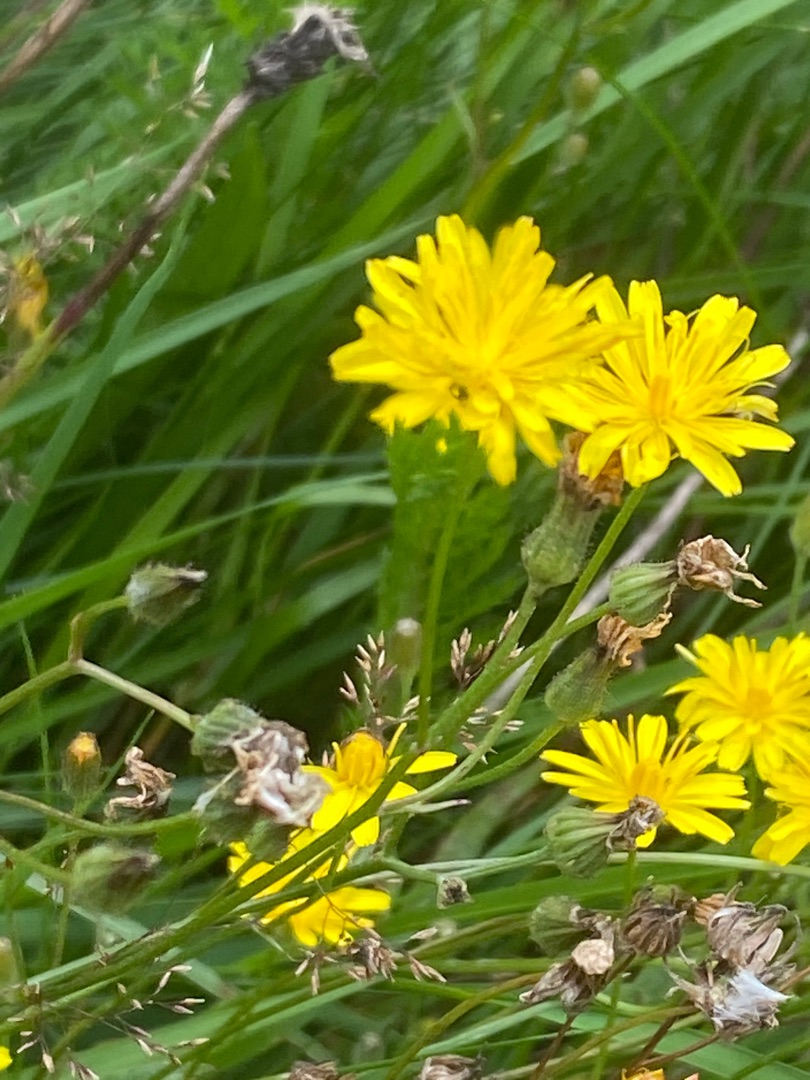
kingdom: Plantae
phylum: Tracheophyta
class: Magnoliopsida
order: Asterales
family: Asteraceae
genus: Crepis
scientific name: Crepis capillaris
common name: Grøn høgeskæg
